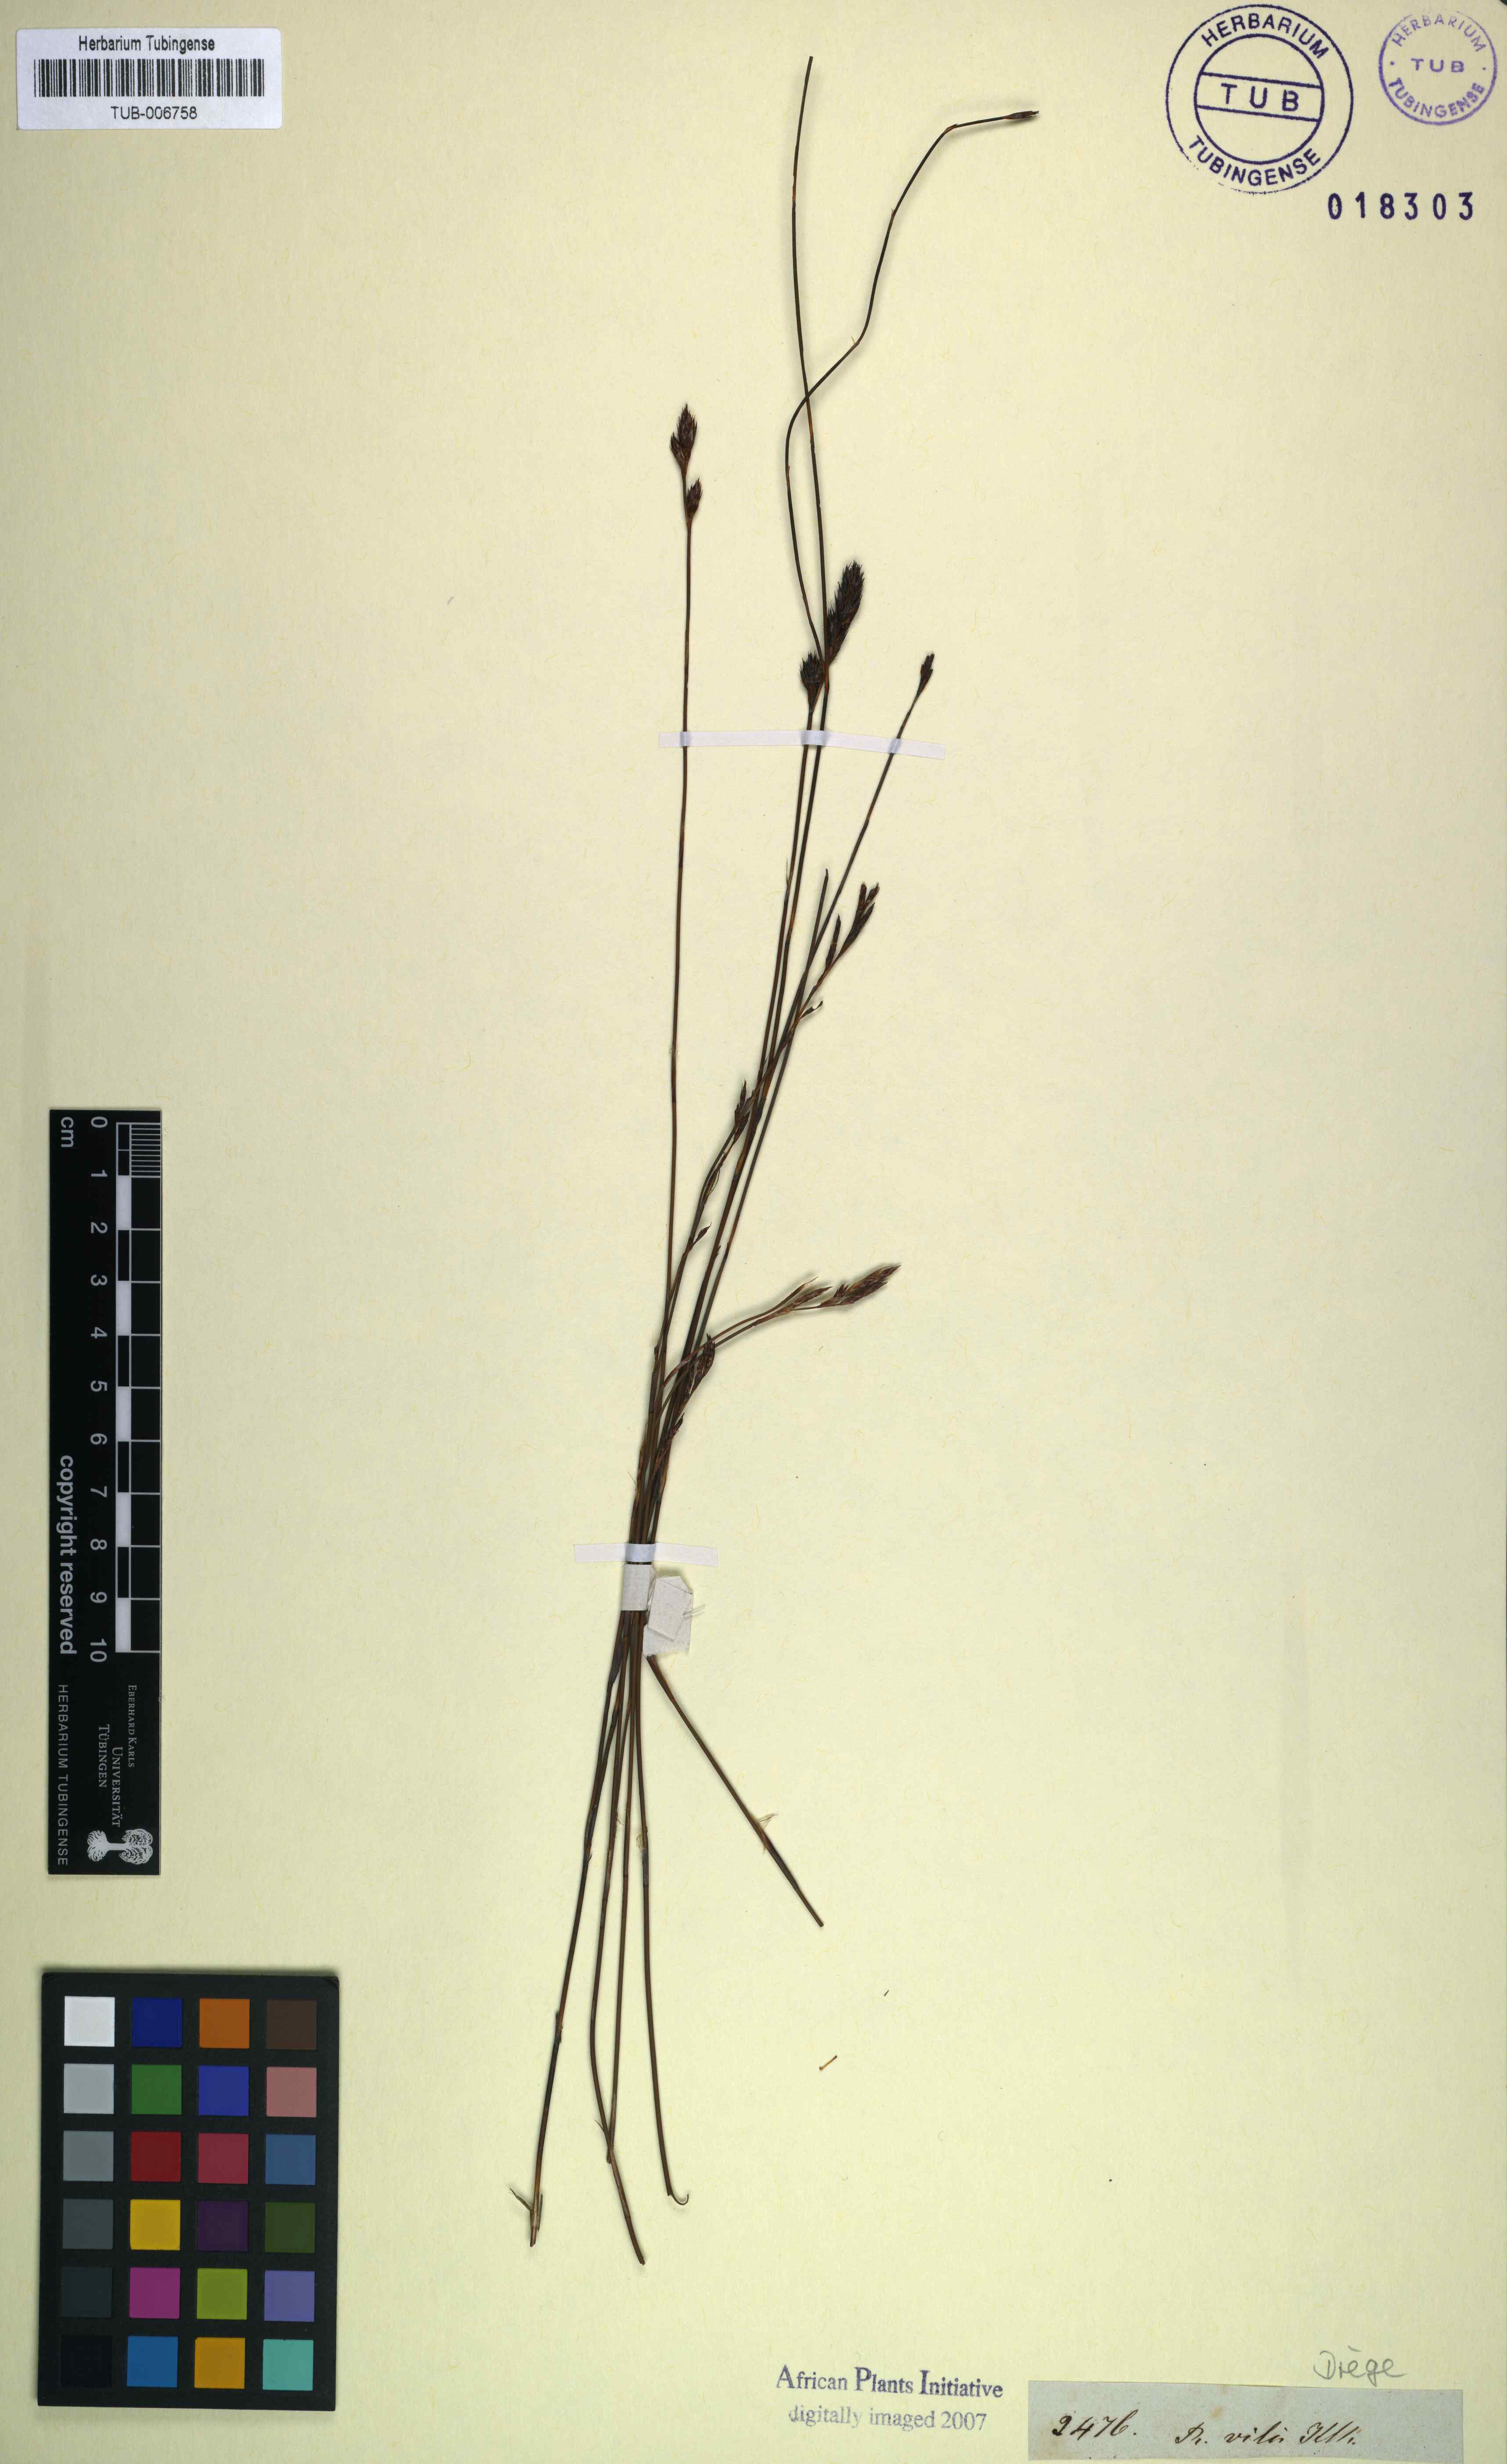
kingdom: Plantae
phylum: Tracheophyta
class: Liliopsida
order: Poales
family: Restionaceae
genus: Restio
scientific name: Restio vilis
